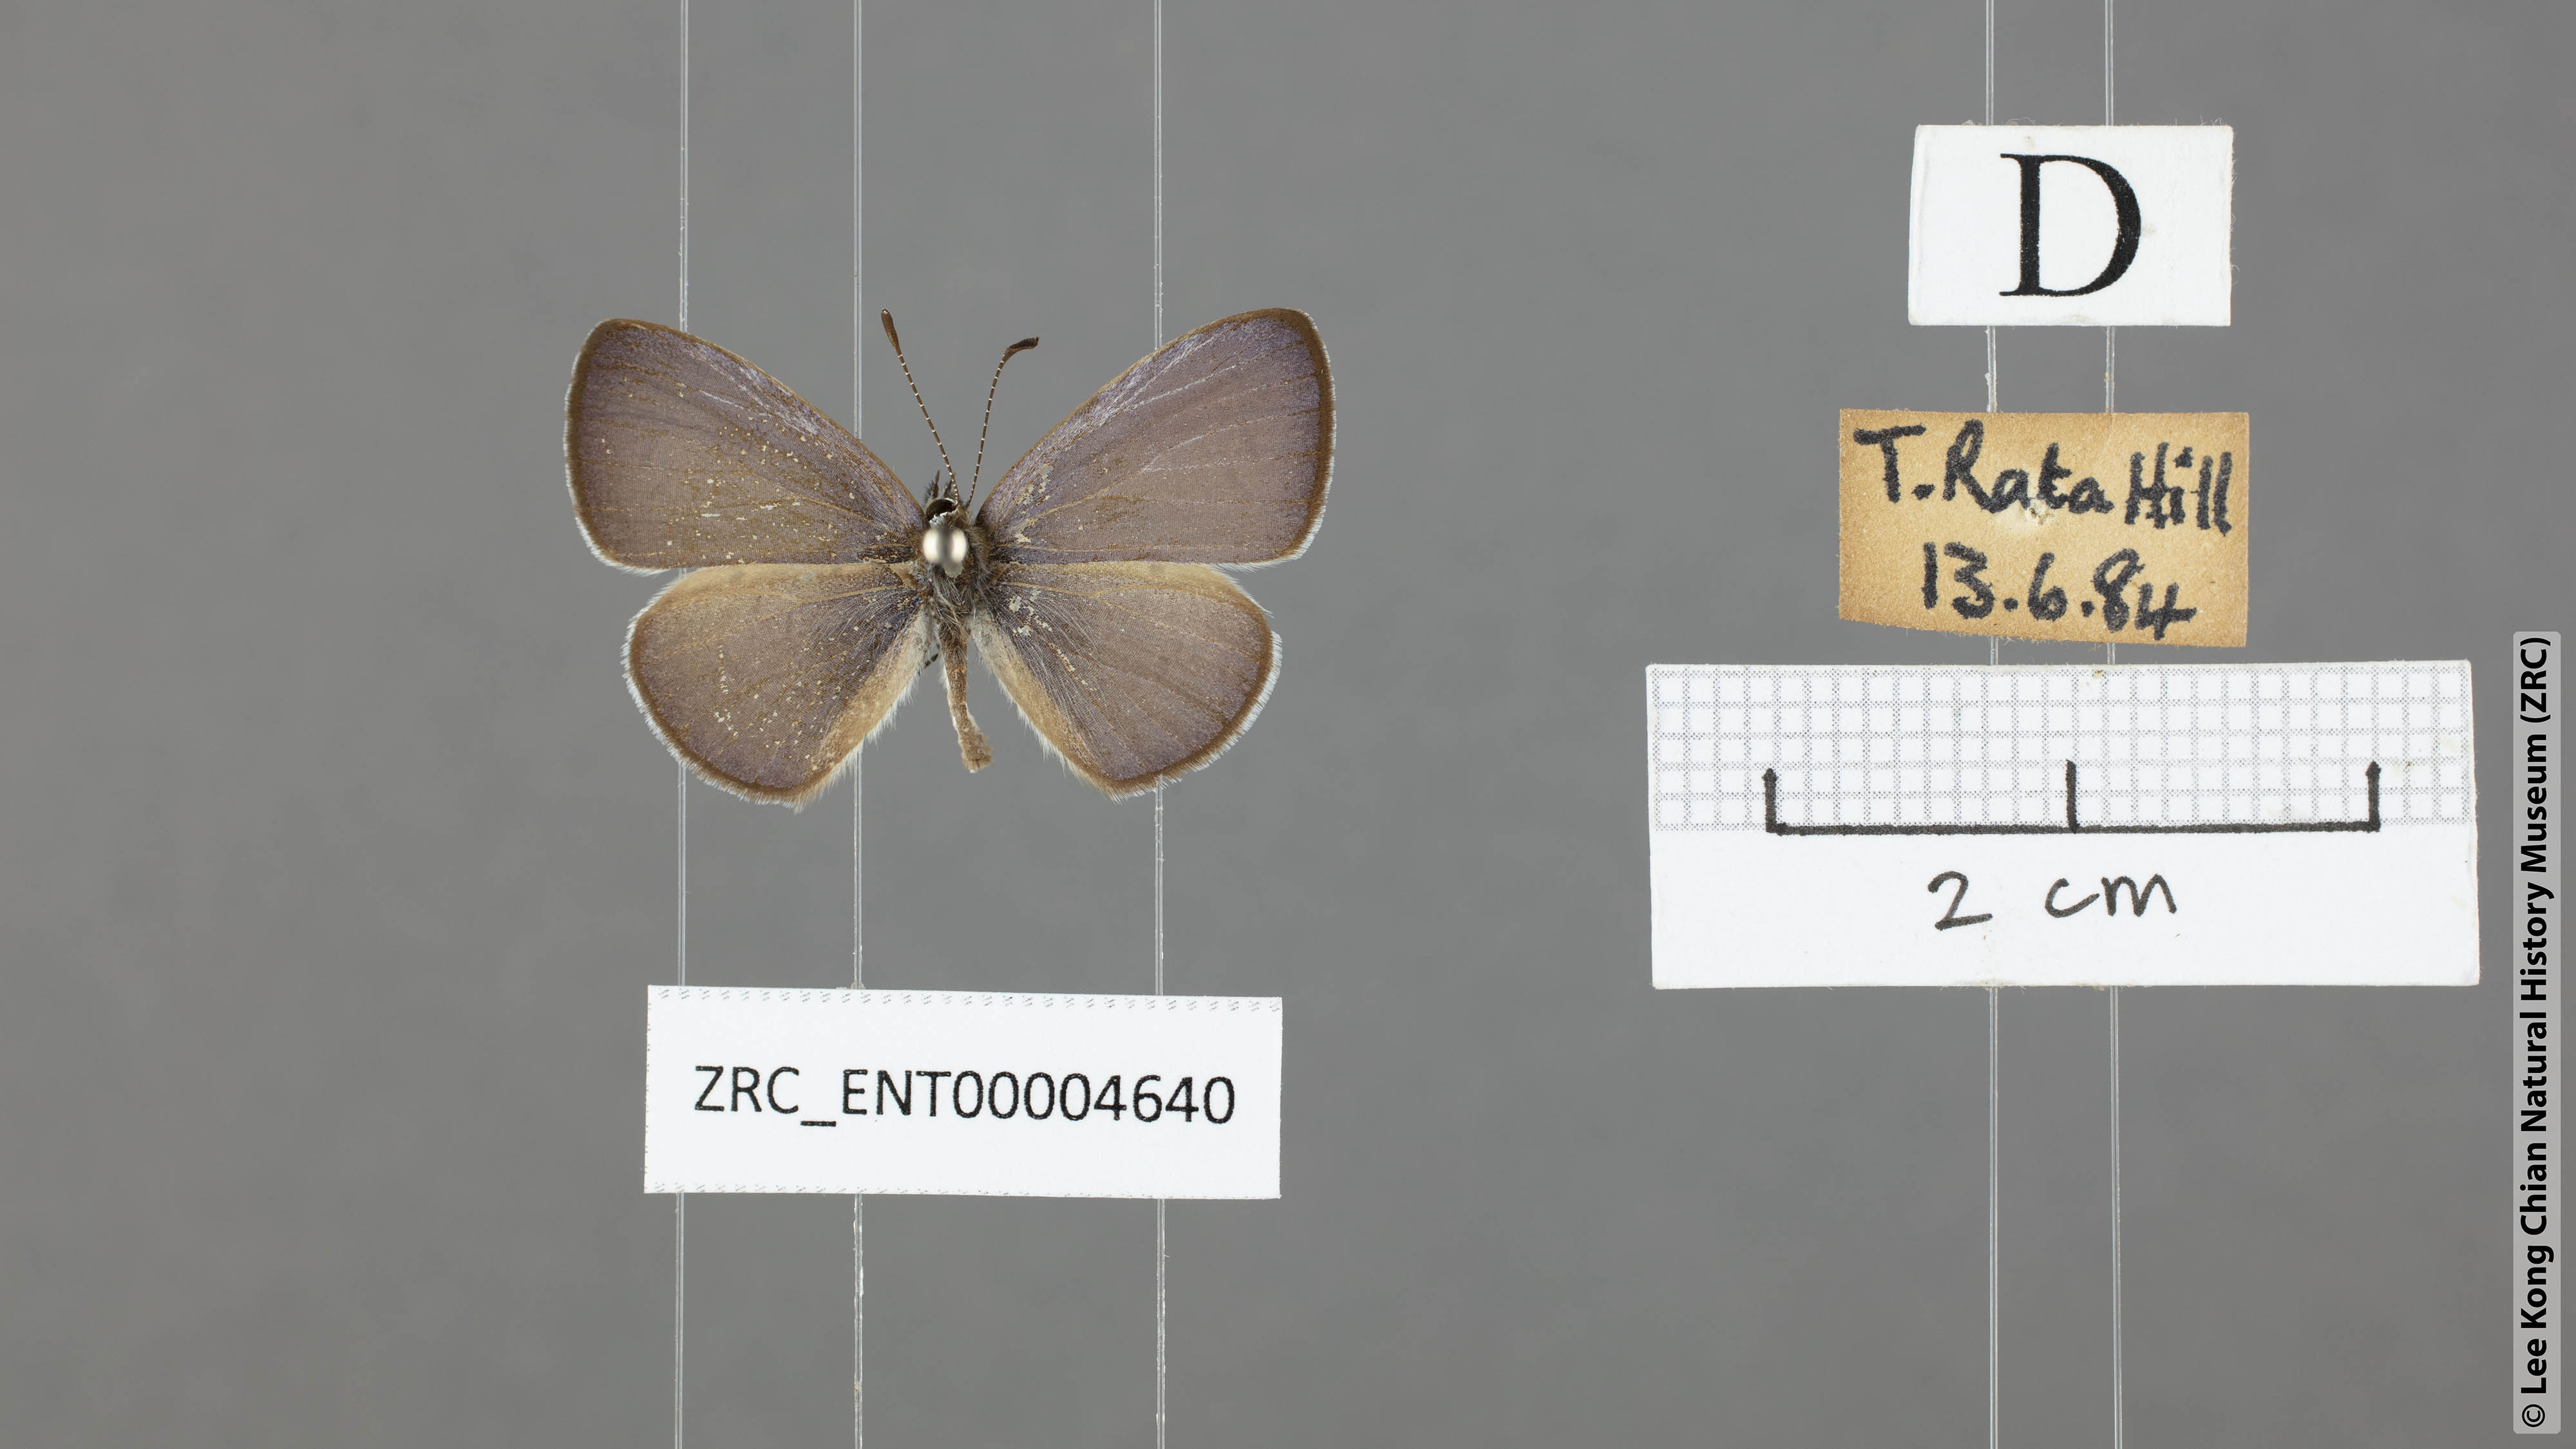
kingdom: Animalia
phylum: Arthropoda
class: Insecta
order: Lepidoptera
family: Lycaenidae
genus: Udara
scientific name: Udara
